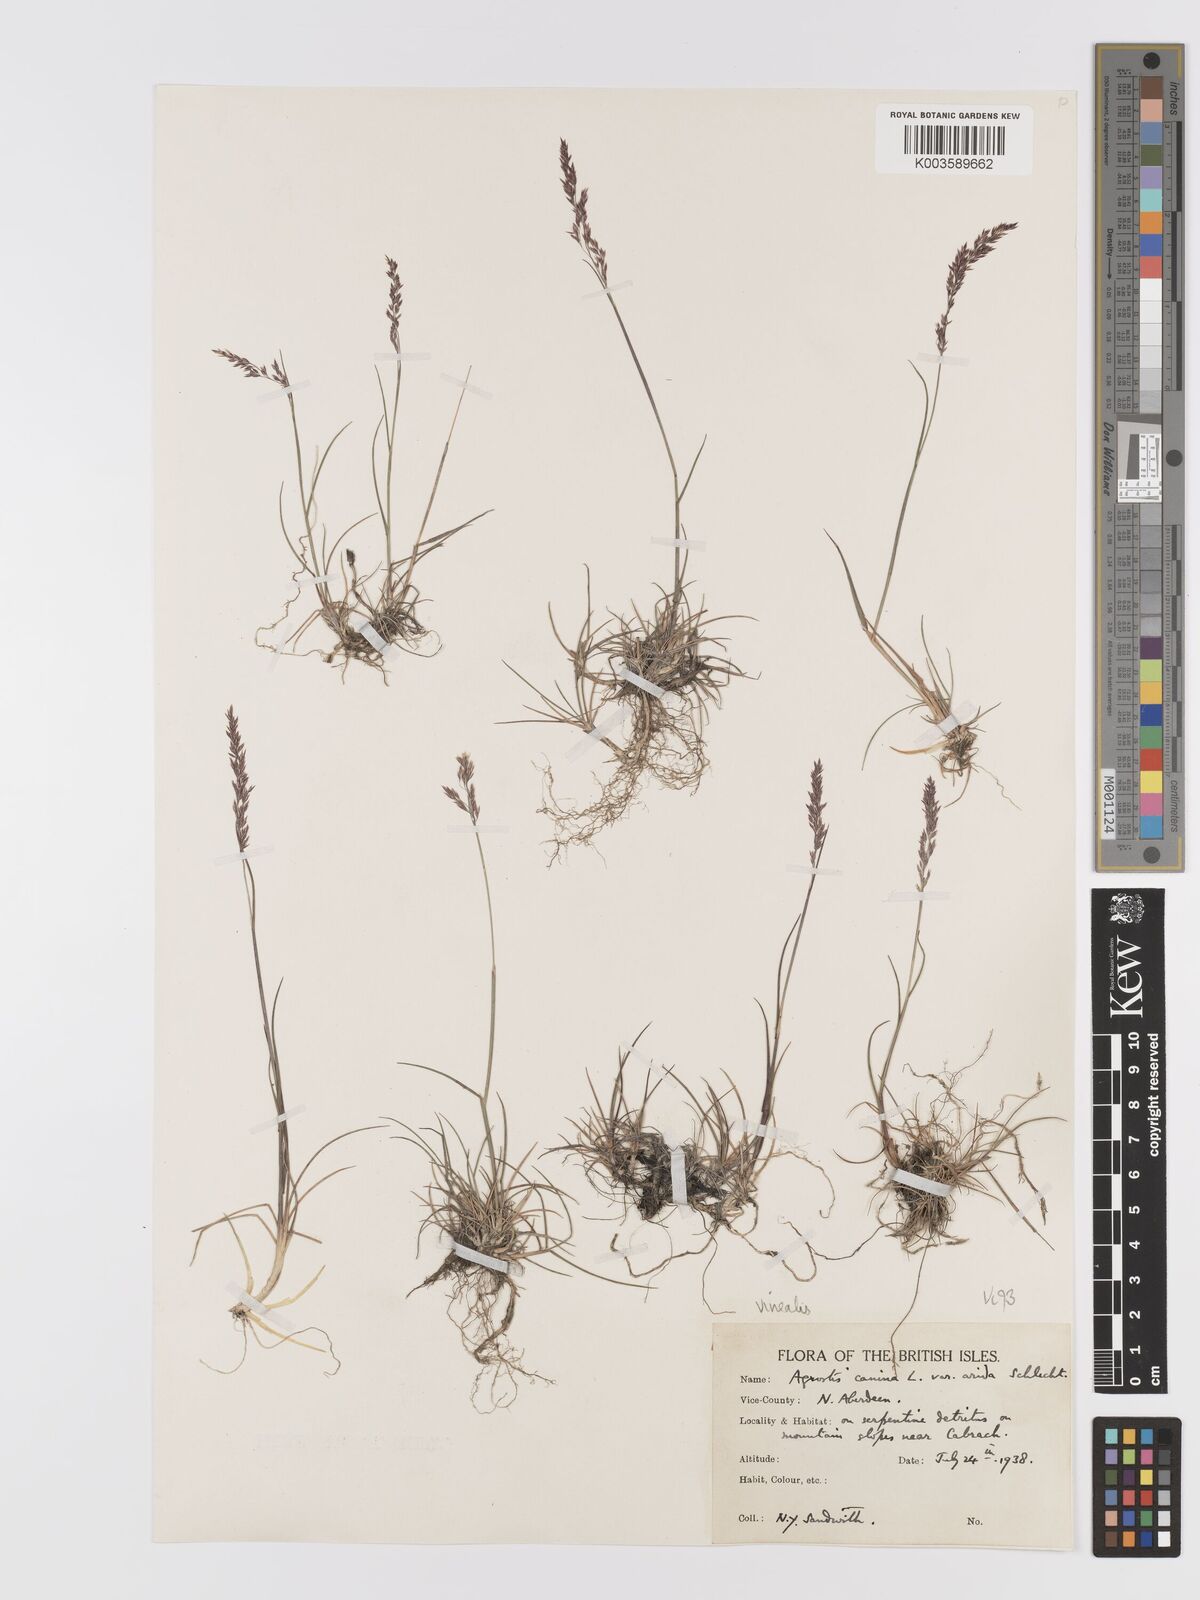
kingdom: Plantae
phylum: Tracheophyta
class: Liliopsida
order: Poales
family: Poaceae
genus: Agrostis
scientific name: Agrostis
